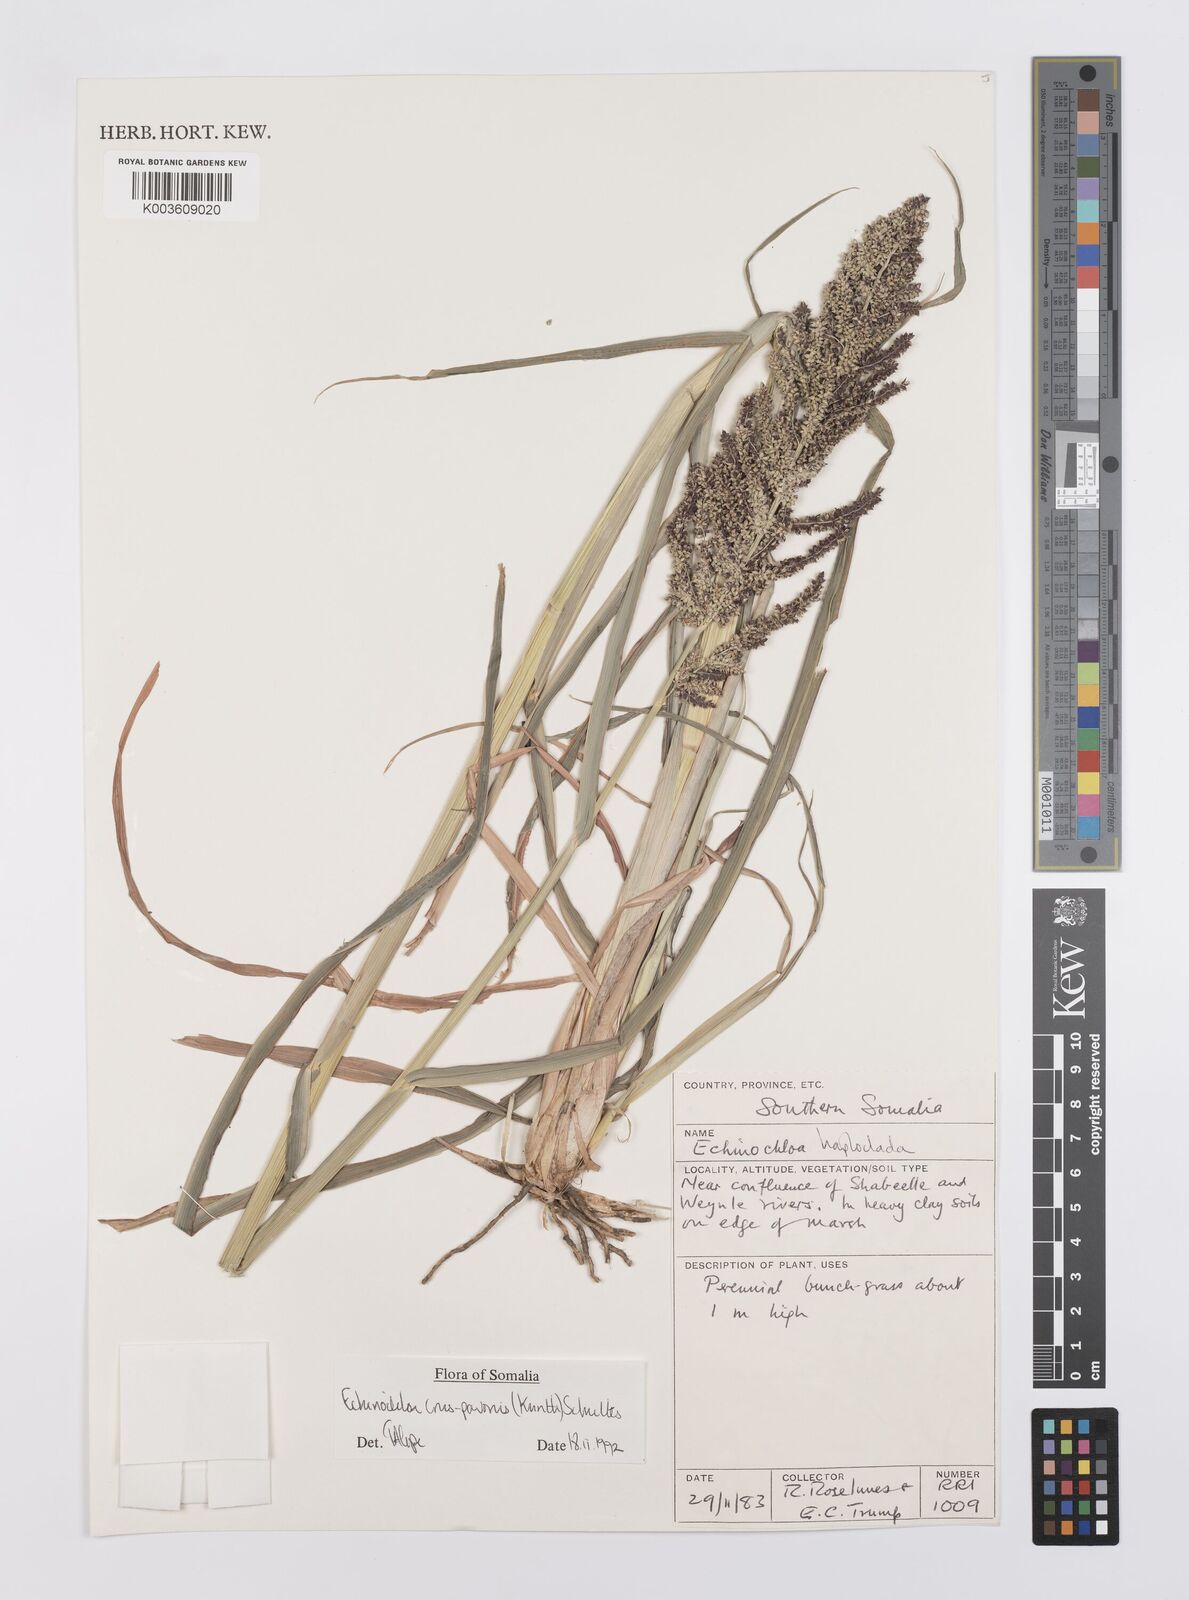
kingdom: Plantae
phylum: Tracheophyta
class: Liliopsida
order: Poales
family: Poaceae
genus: Echinochloa
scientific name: Echinochloa crus-pavonis
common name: Gulf cockspur grass
